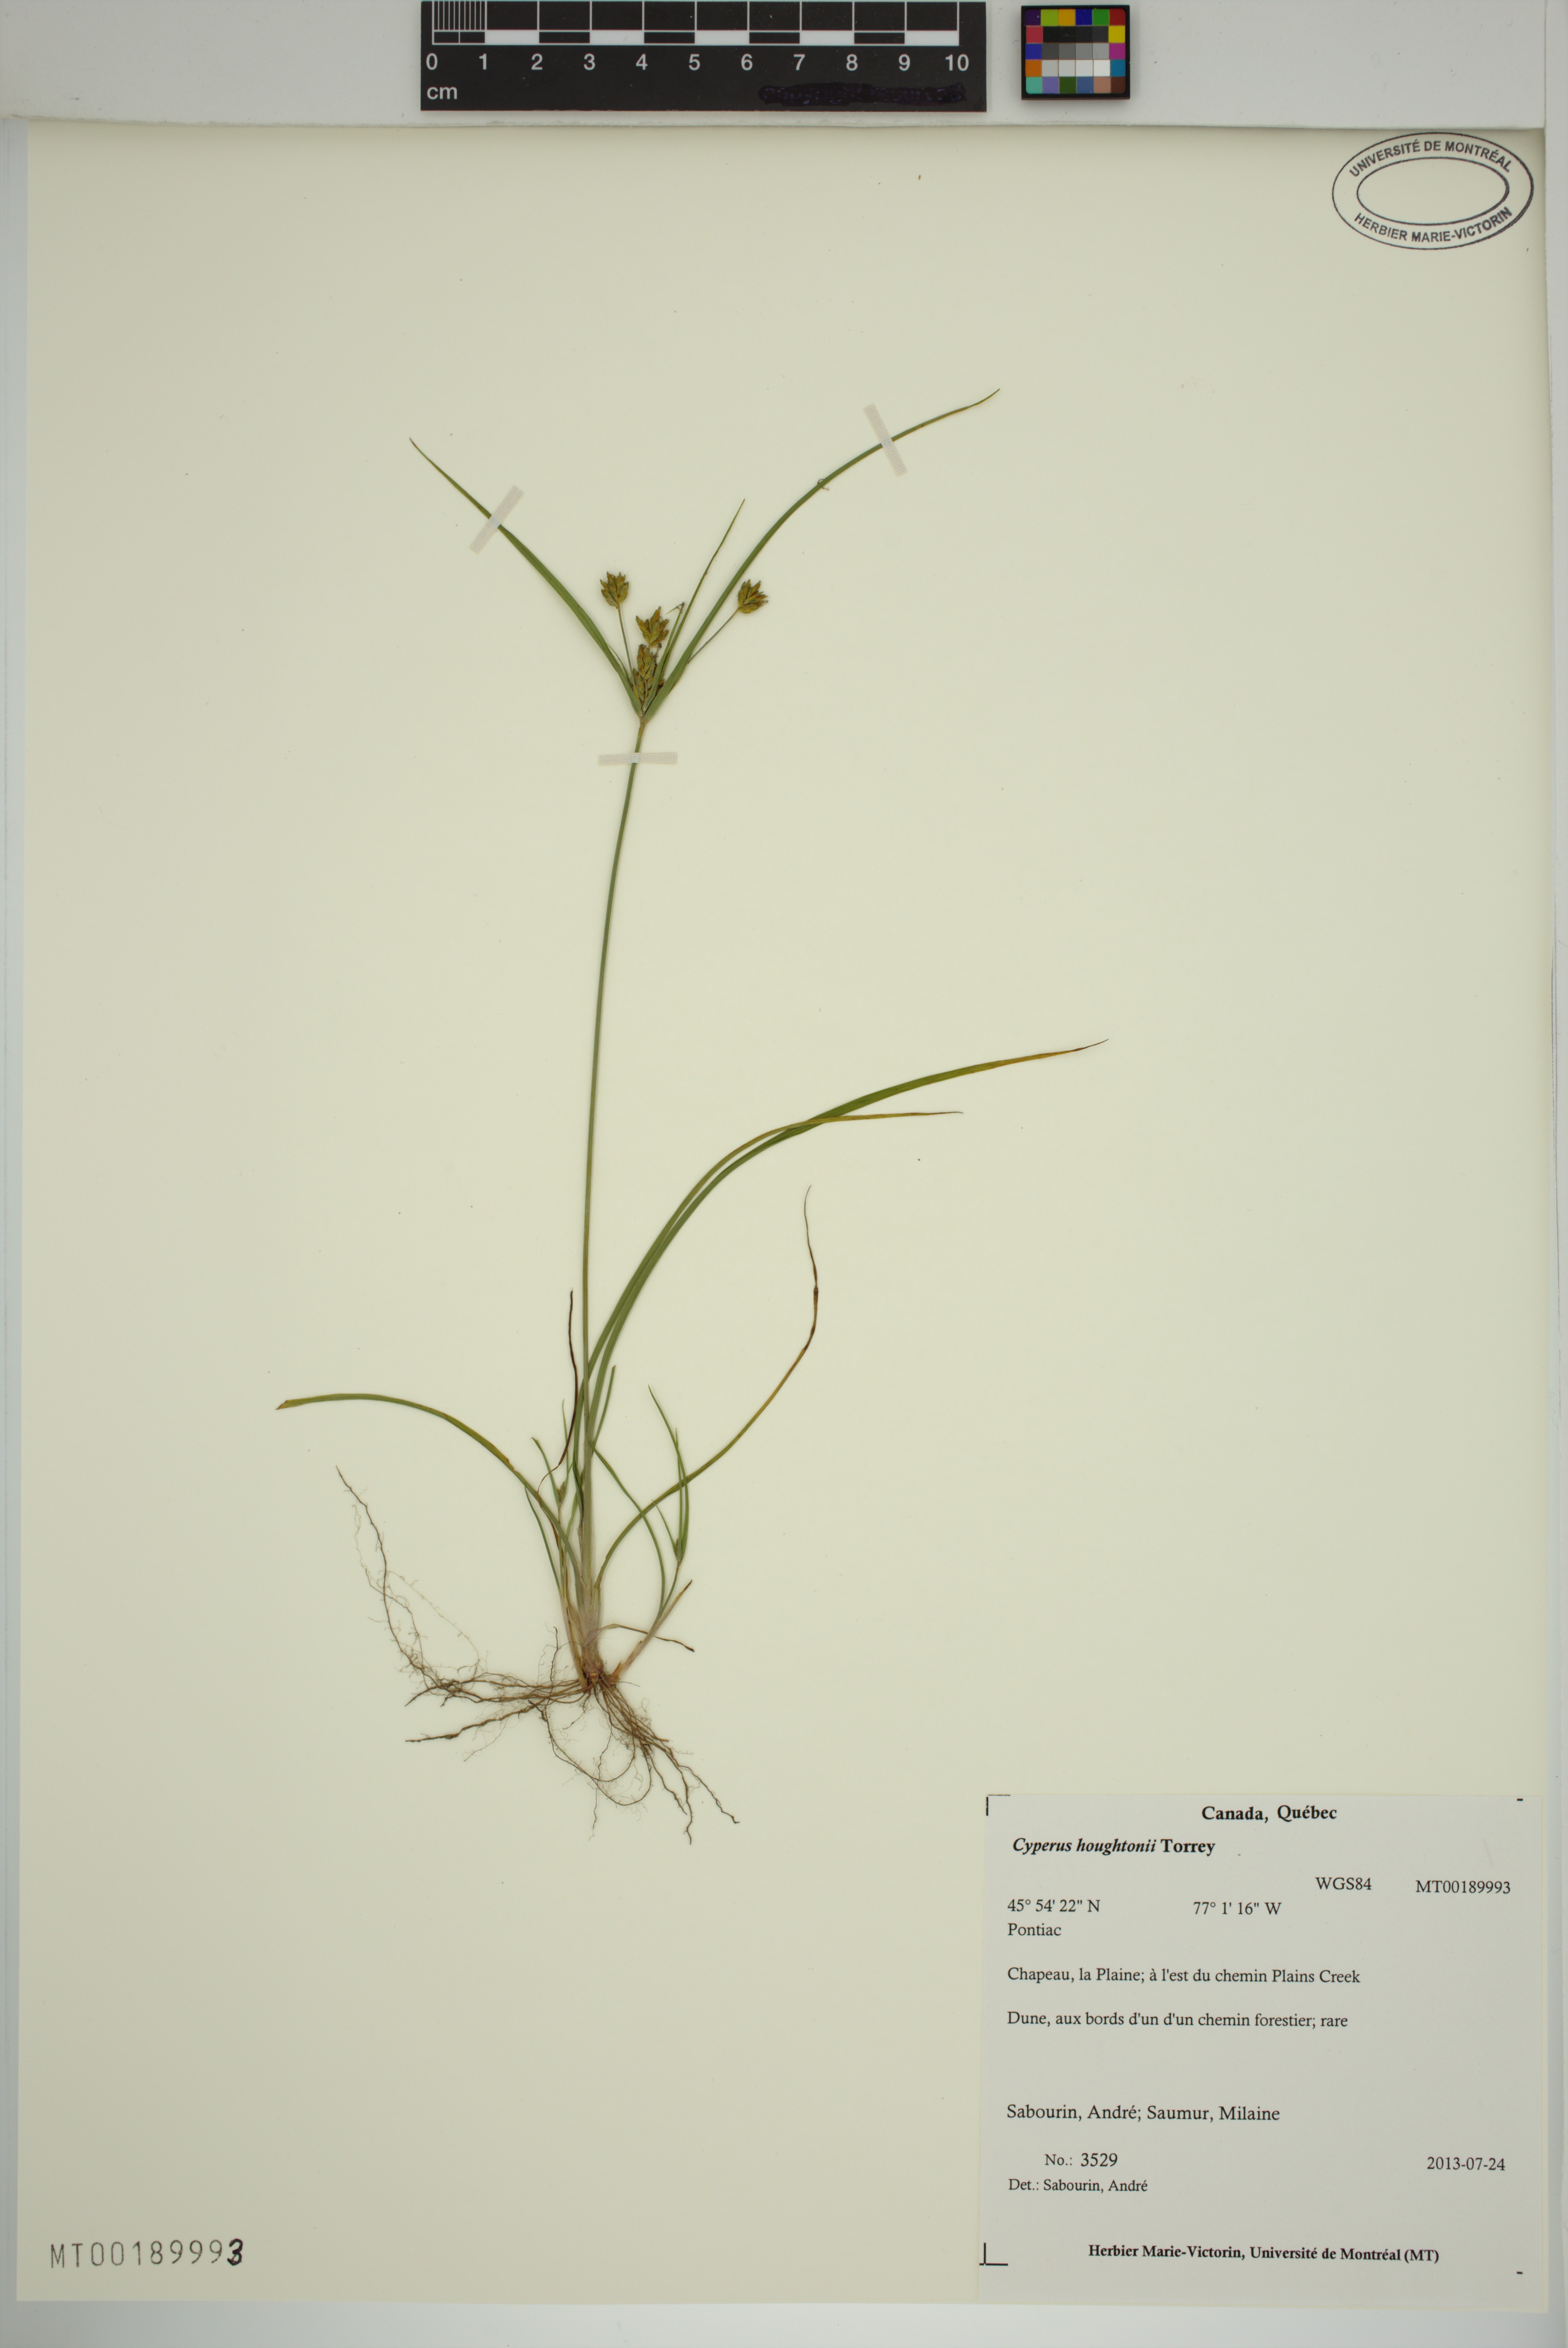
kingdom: Plantae
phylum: Tracheophyta
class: Liliopsida
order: Poales
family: Cyperaceae
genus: Cyperus
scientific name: Cyperus houghtonii
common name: Houghton's cyperus
